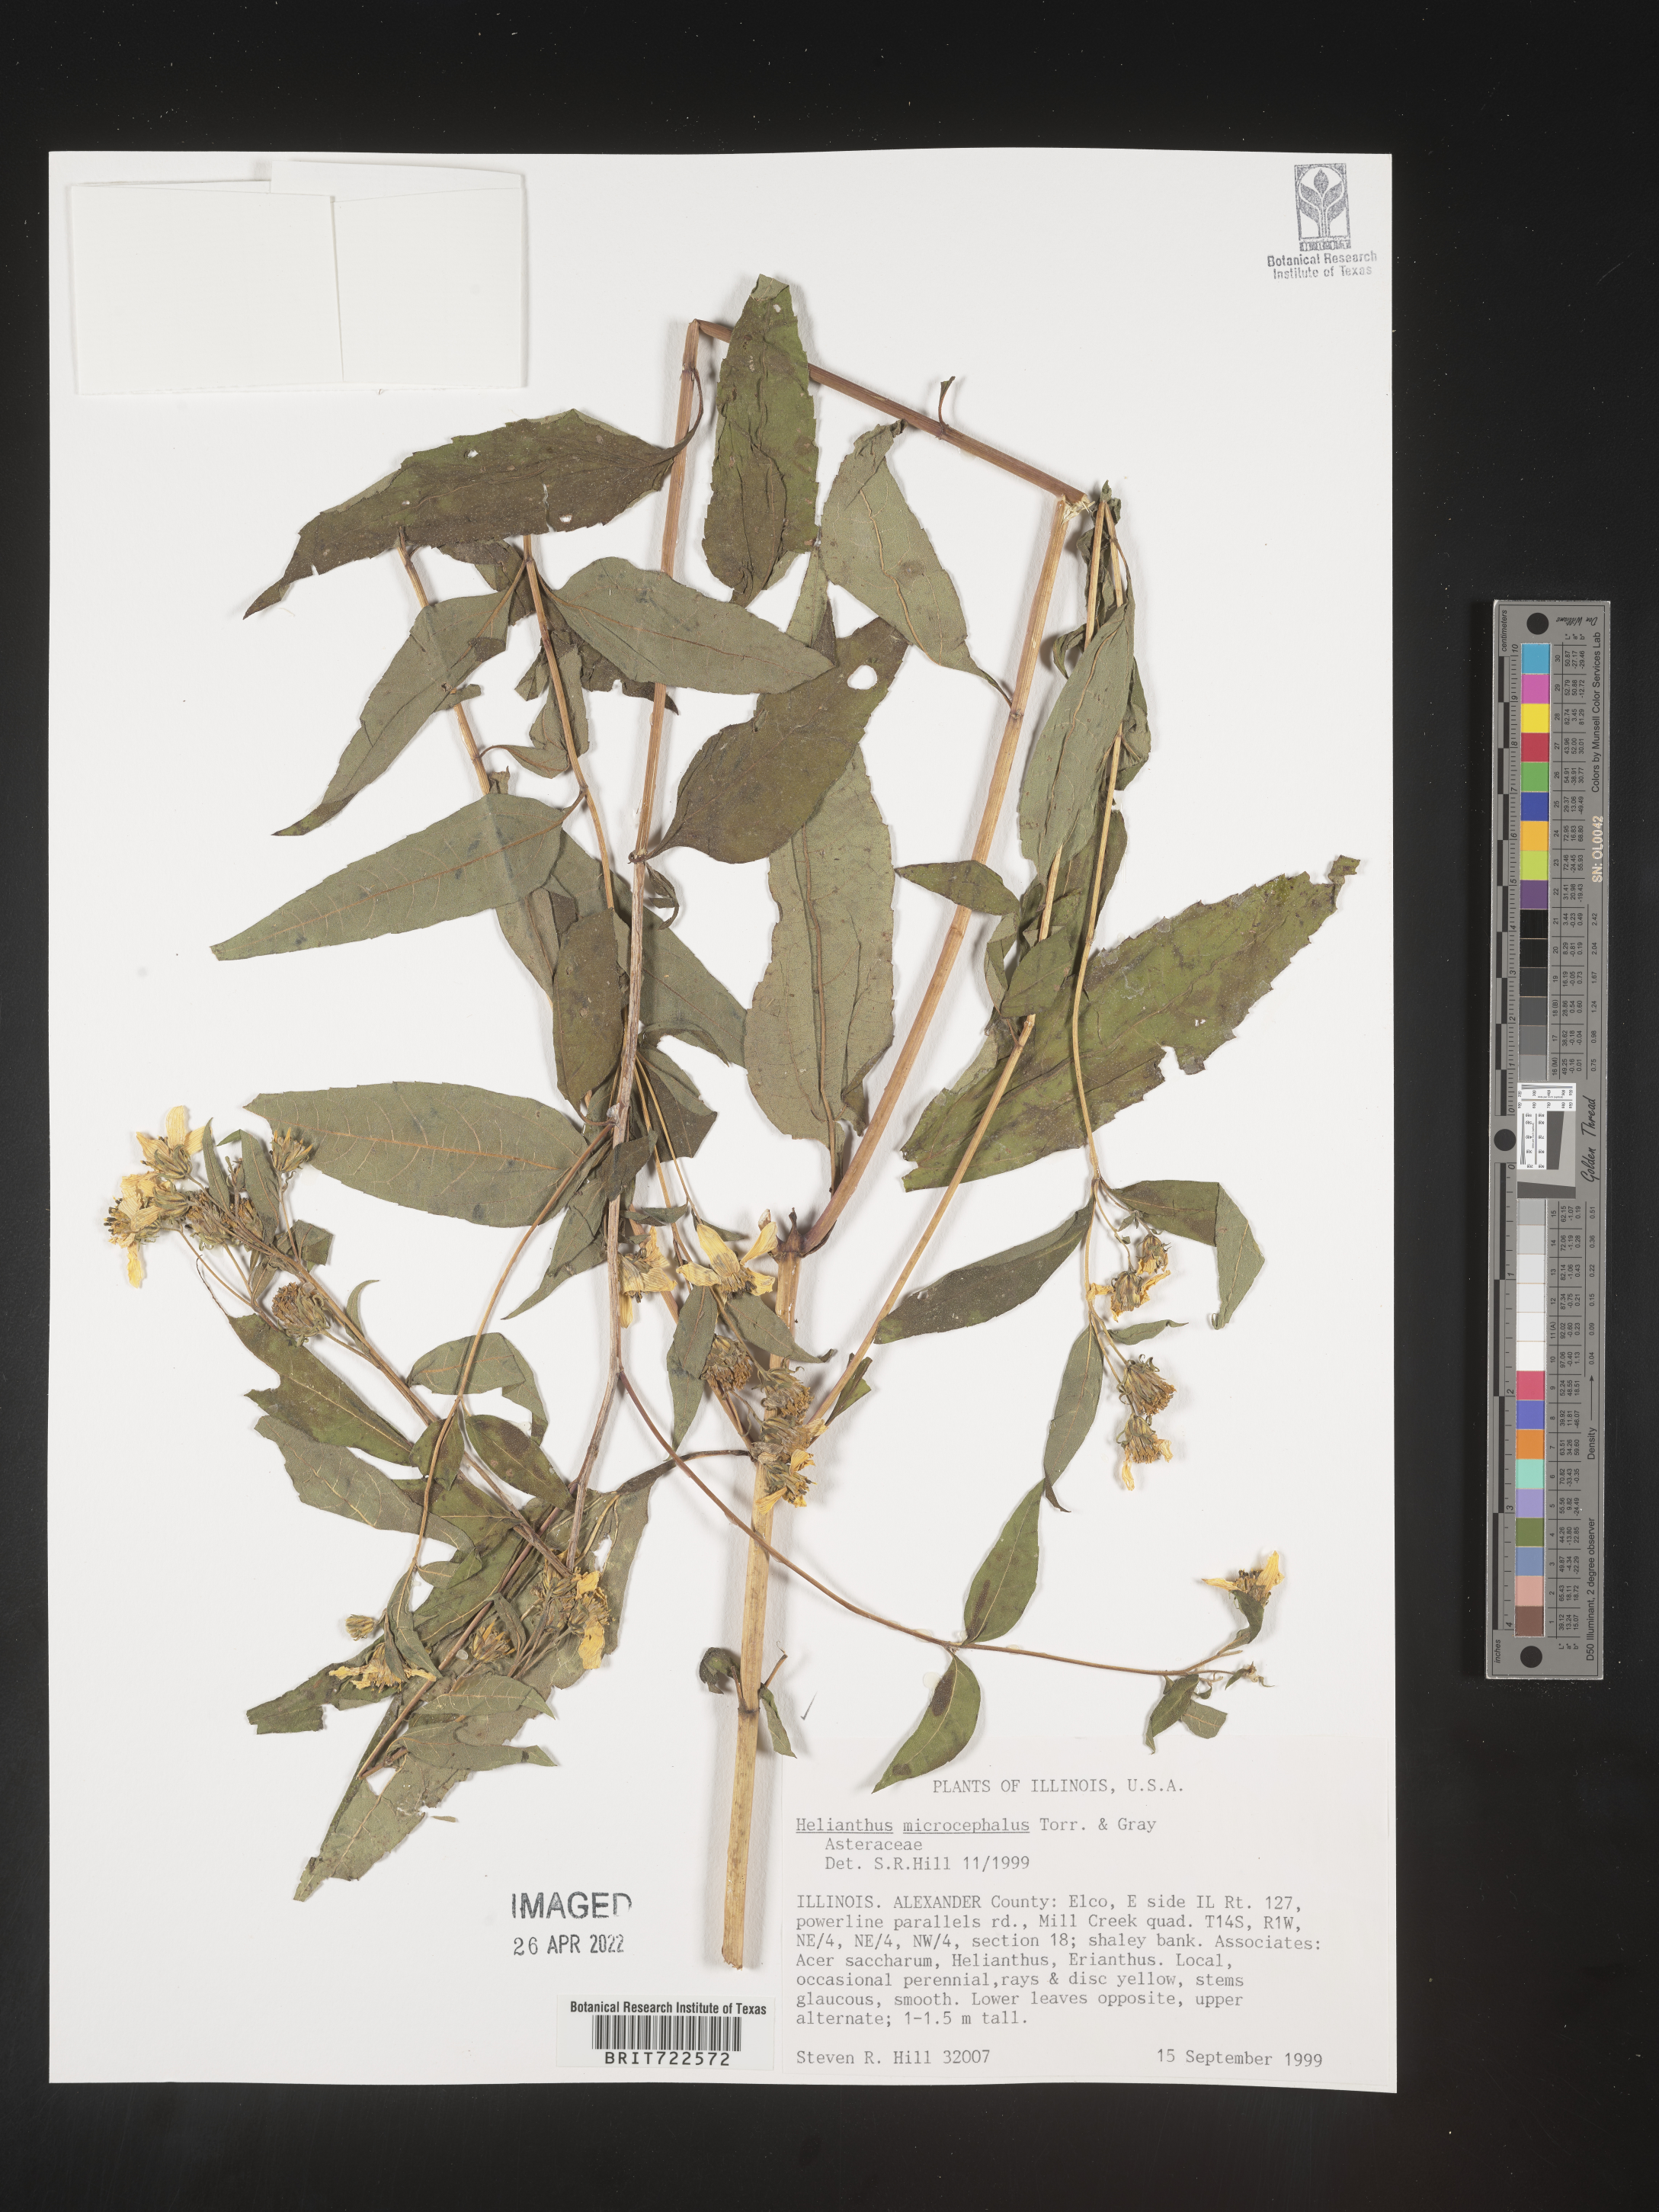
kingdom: Plantae
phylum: Tracheophyta
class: Magnoliopsida
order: Asterales
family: Asteraceae
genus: Helianthus
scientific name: Helianthus microcephalus
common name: Woodland sunflower
